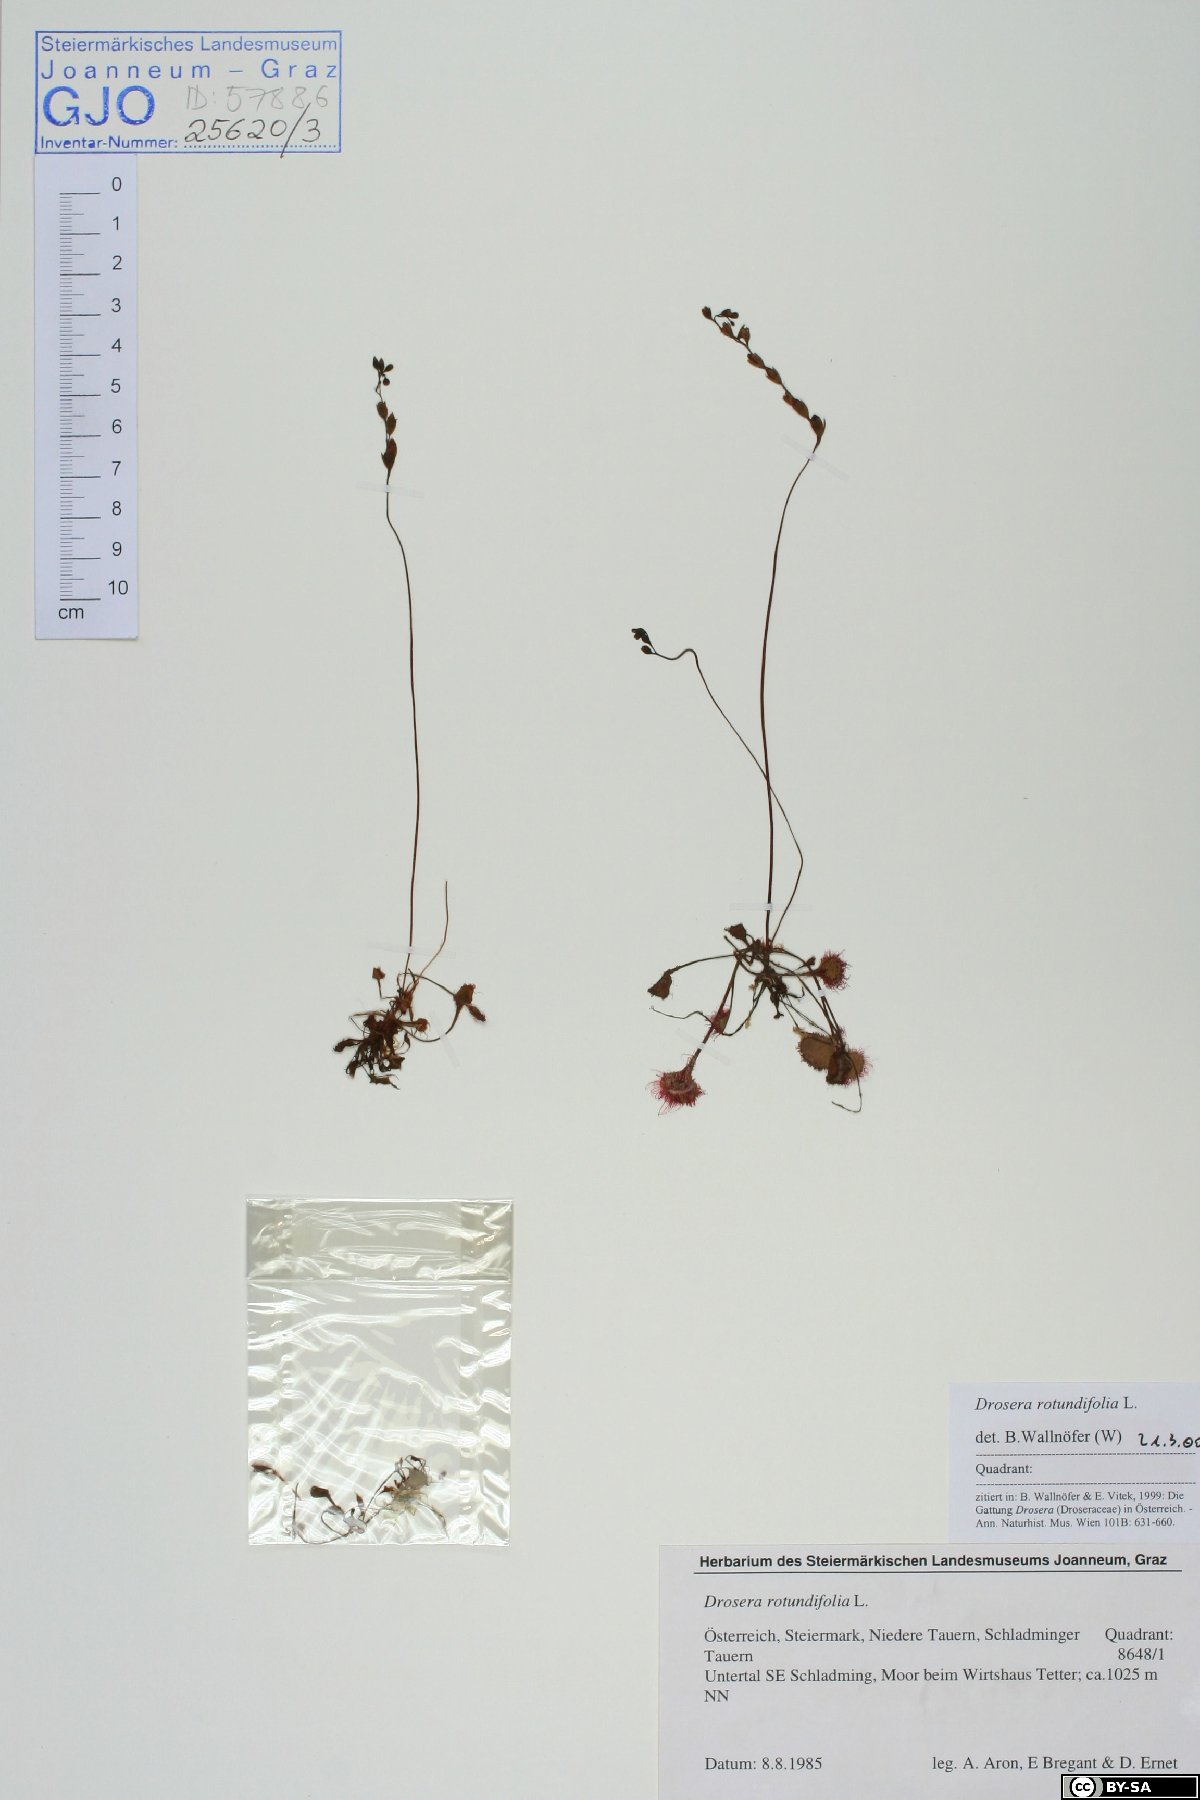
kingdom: Plantae
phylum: Tracheophyta
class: Magnoliopsida
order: Caryophyllales
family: Droseraceae
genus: Drosera
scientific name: Drosera rotundifolia
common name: Round-leaved sundew
